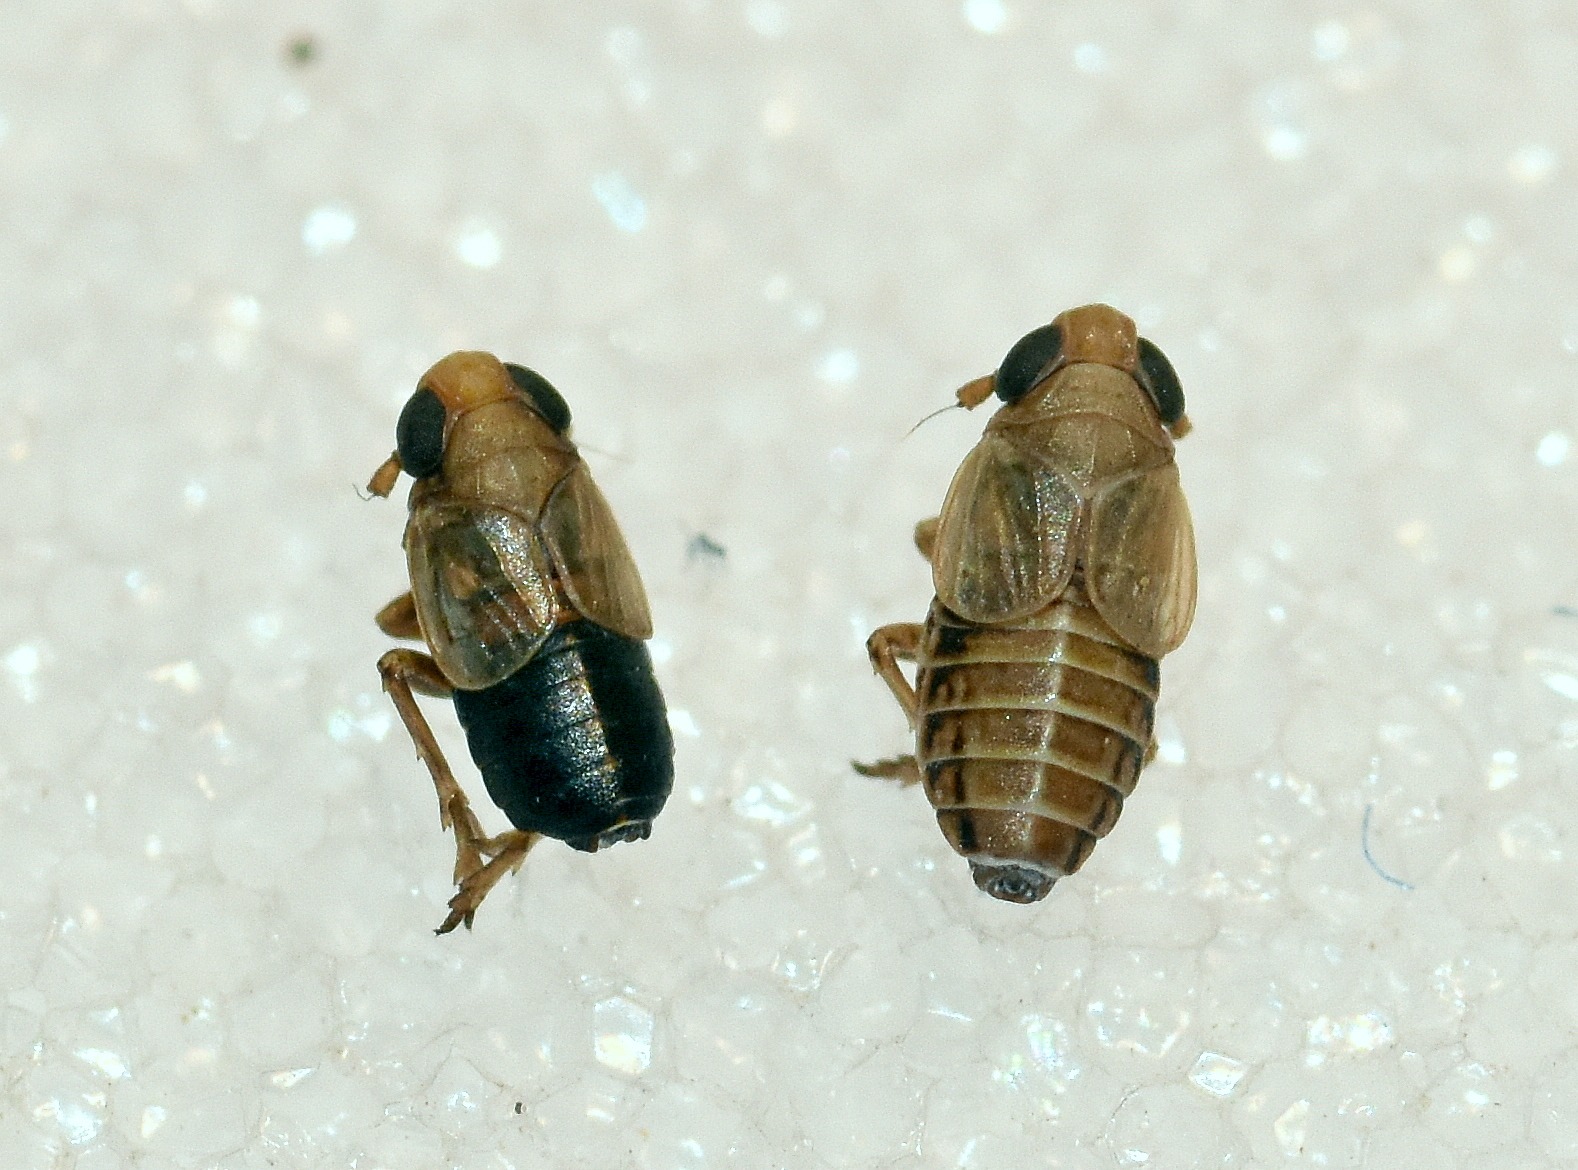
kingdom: Animalia
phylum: Arthropoda
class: Insecta
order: Hemiptera
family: Delphacidae
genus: Kosswigianella
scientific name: Kosswigianella exigua
